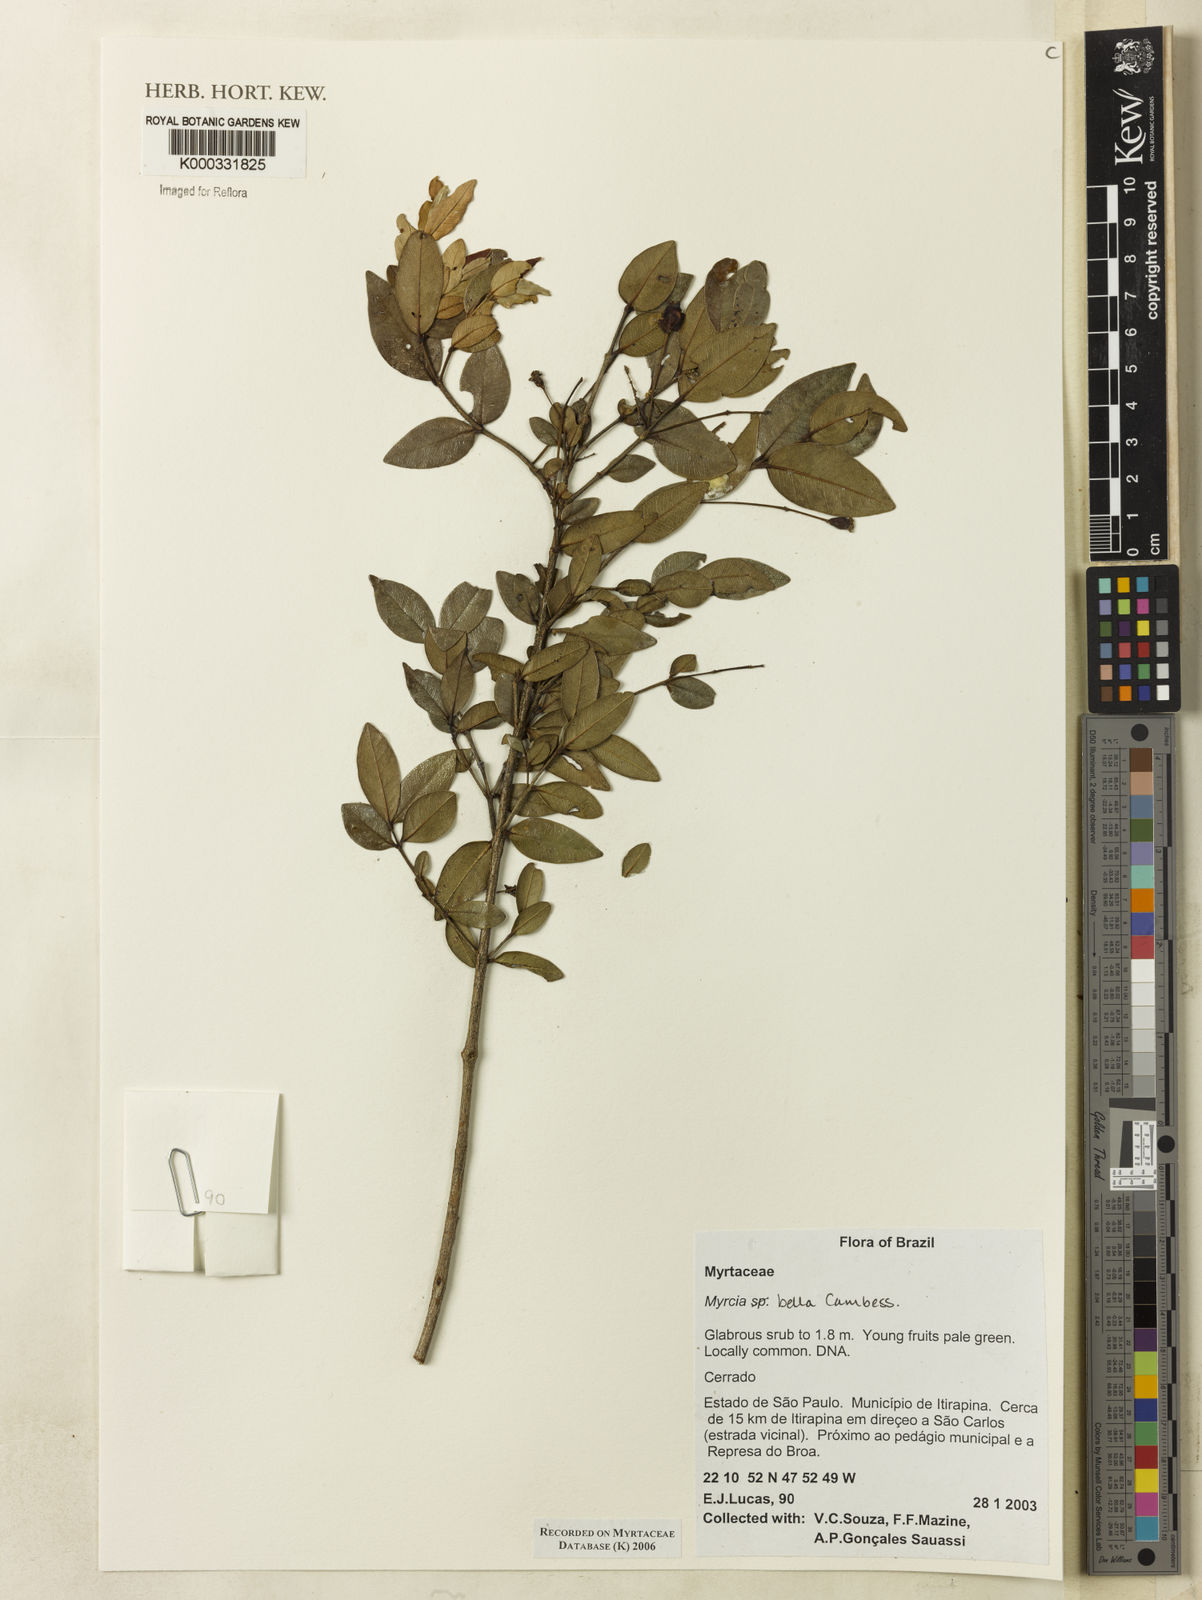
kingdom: Plantae
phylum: Tracheophyta
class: Magnoliopsida
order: Myrtales
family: Myrtaceae
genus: Myrcia
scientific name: Myrcia bella
